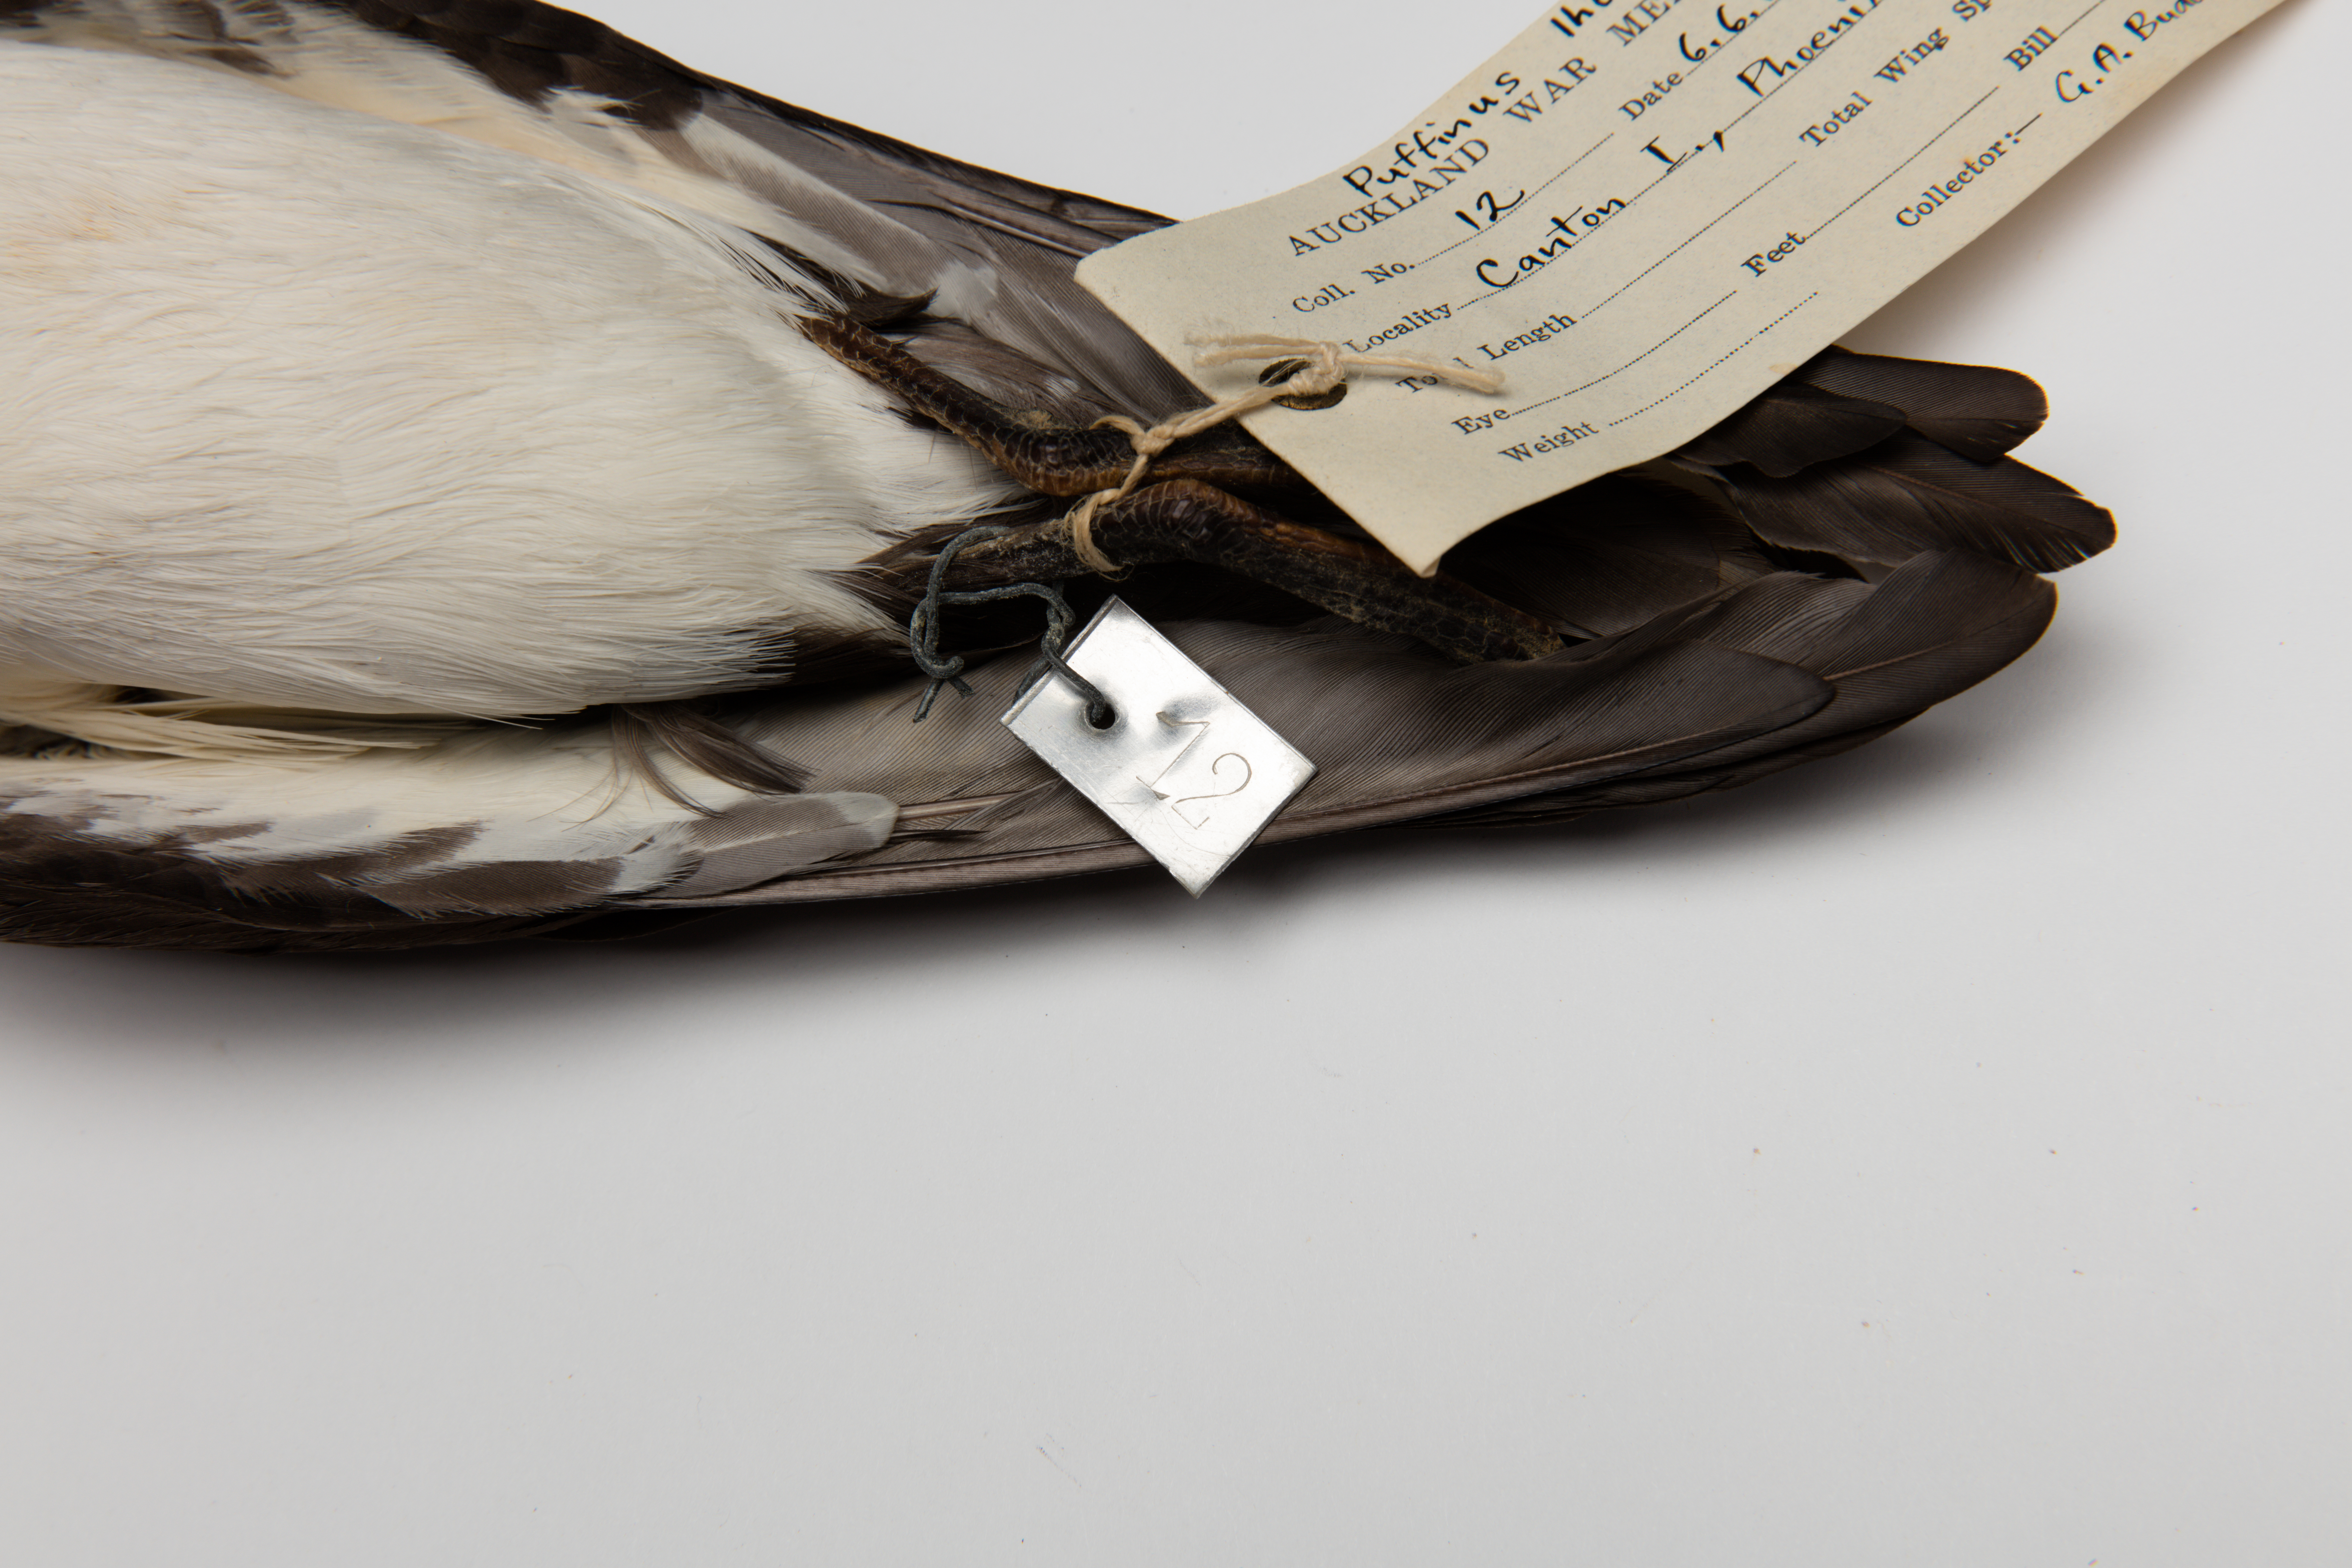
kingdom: Animalia
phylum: Chordata
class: Aves
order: Procellariiformes
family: Procellariidae
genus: Puffinus
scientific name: Puffinus lherminieri
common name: Audubon's shearwater
